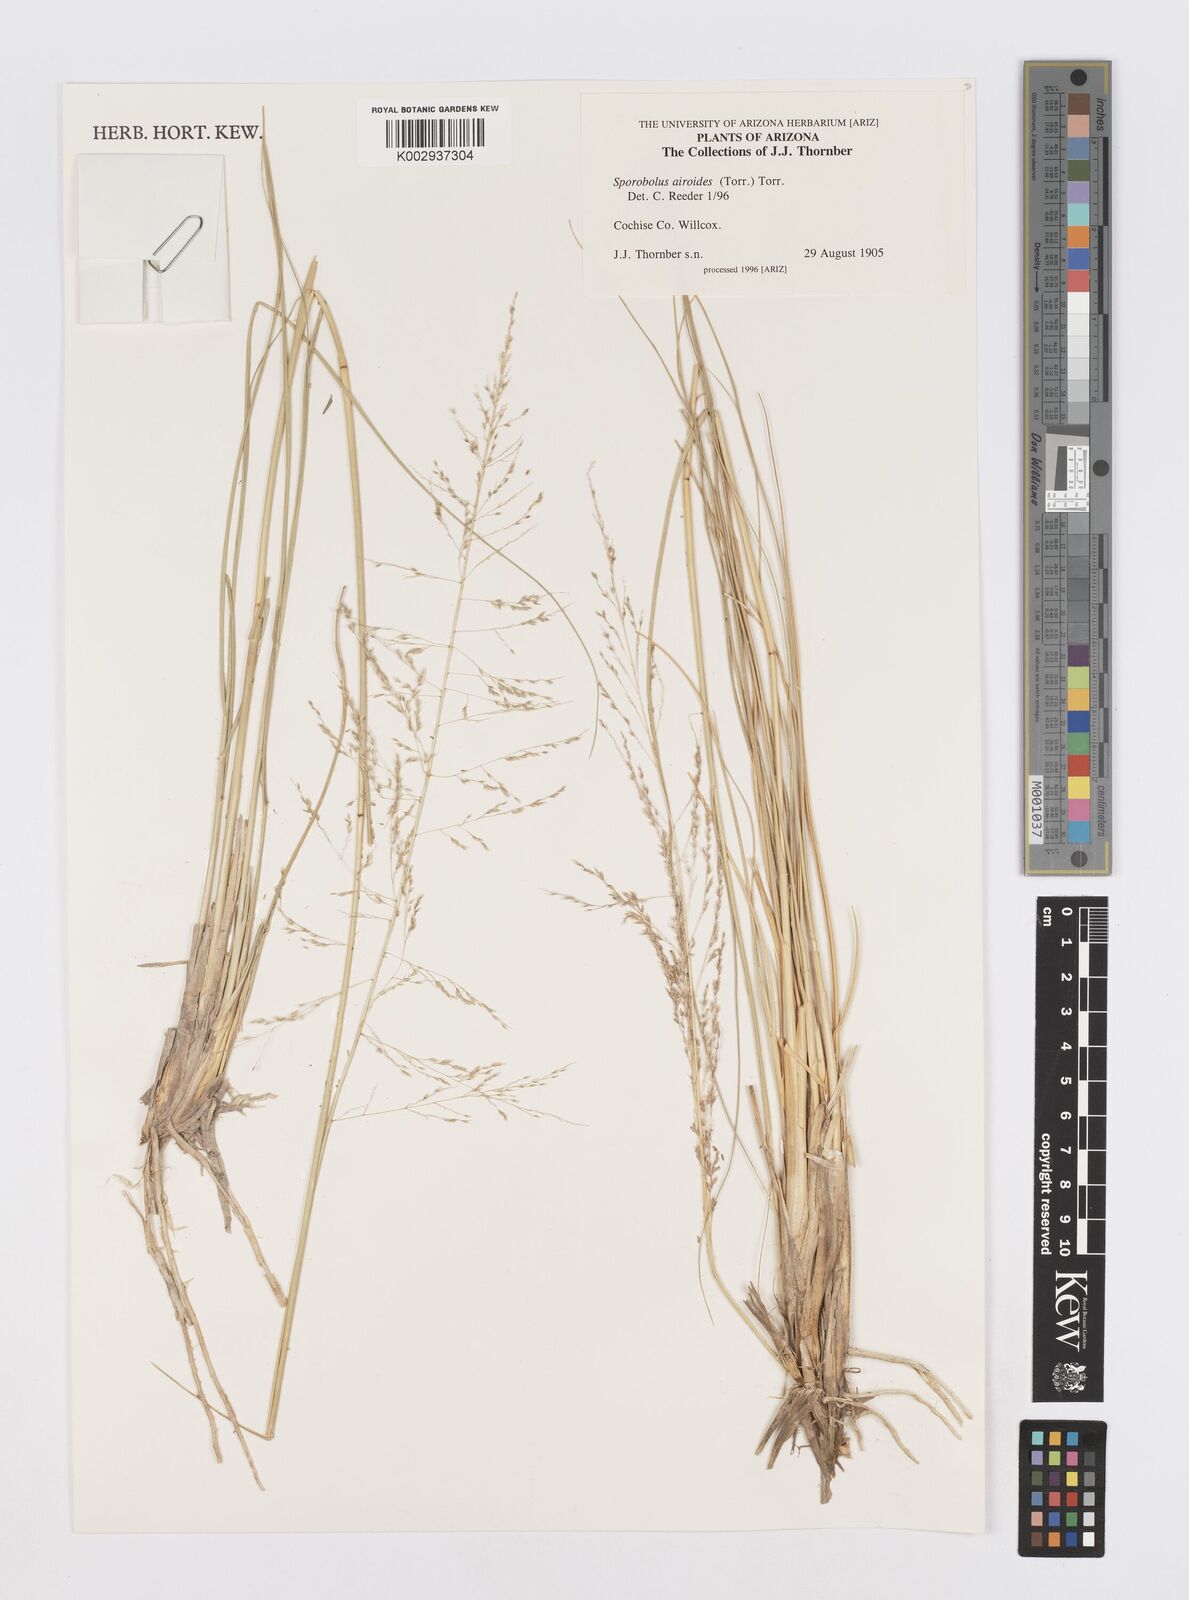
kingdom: Plantae
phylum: Tracheophyta
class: Liliopsida
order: Poales
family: Poaceae
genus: Sporobolus
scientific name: Sporobolus airoides
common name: Alkali sacaton
